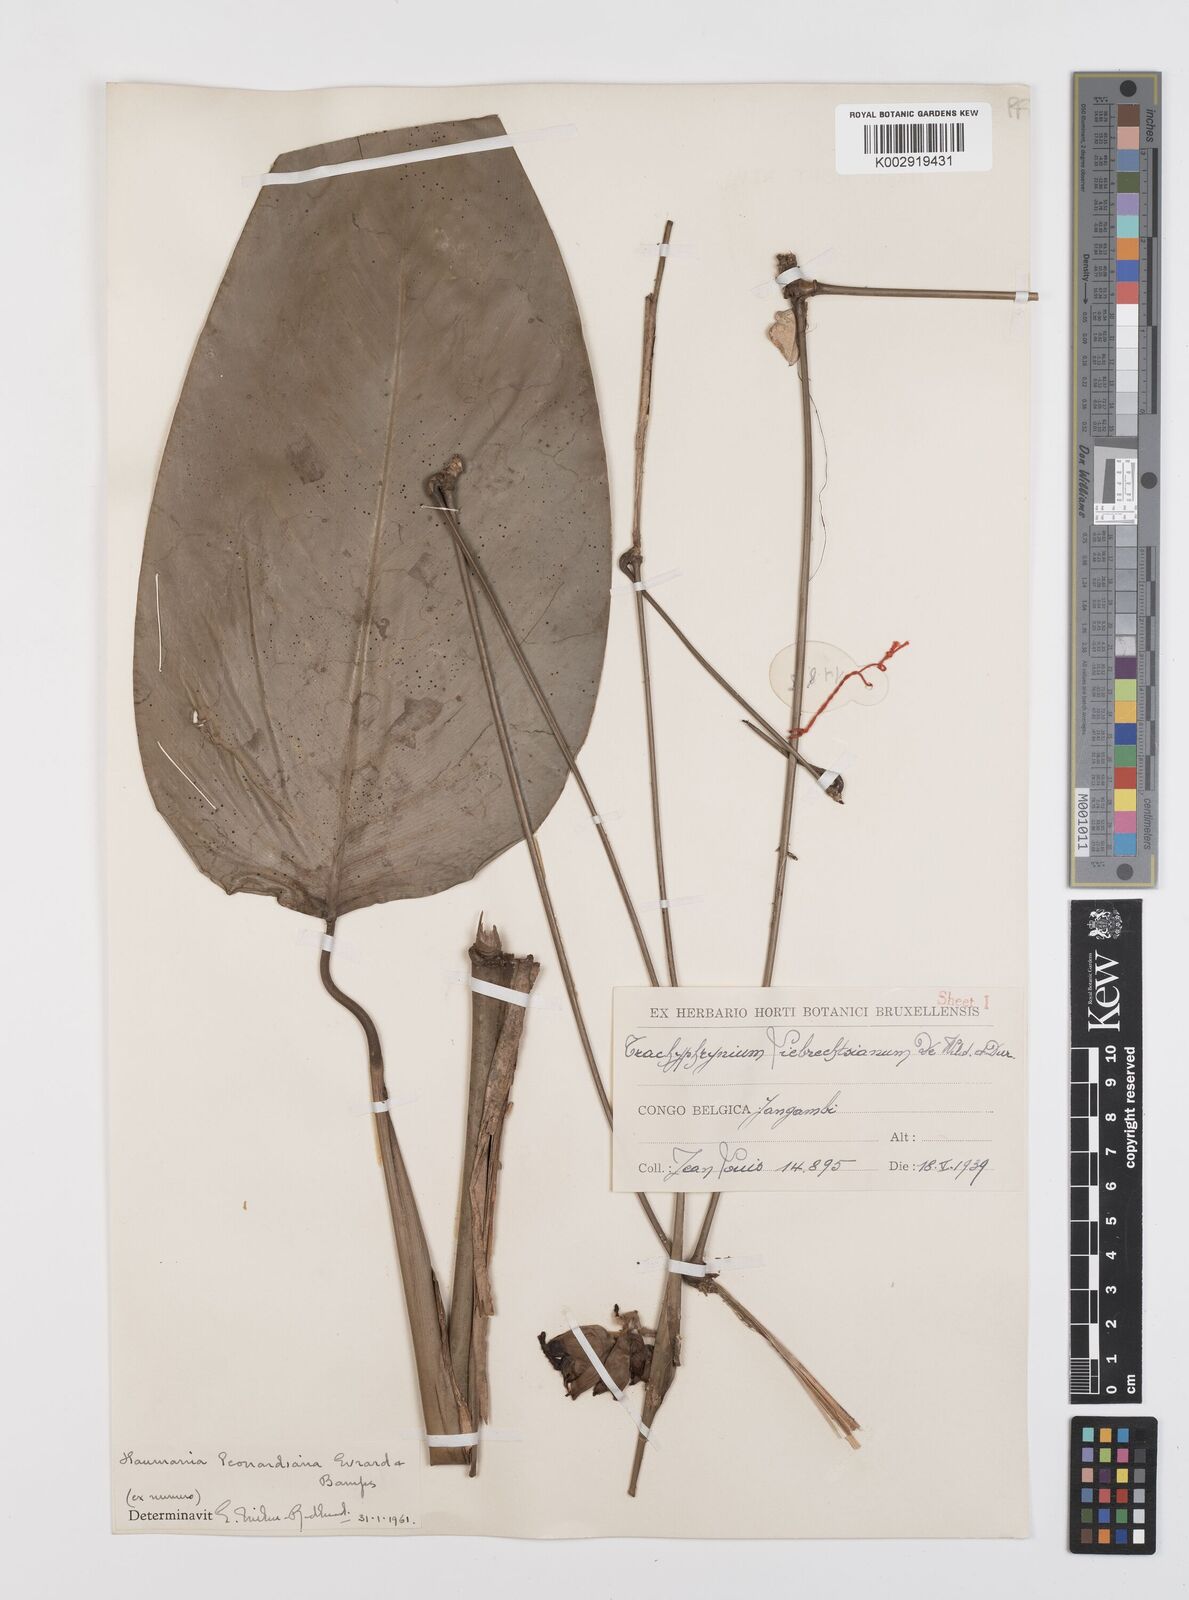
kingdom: Plantae
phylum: Tracheophyta
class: Liliopsida
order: Zingiberales
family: Marantaceae
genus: Haumania
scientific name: Haumania leonardiana
